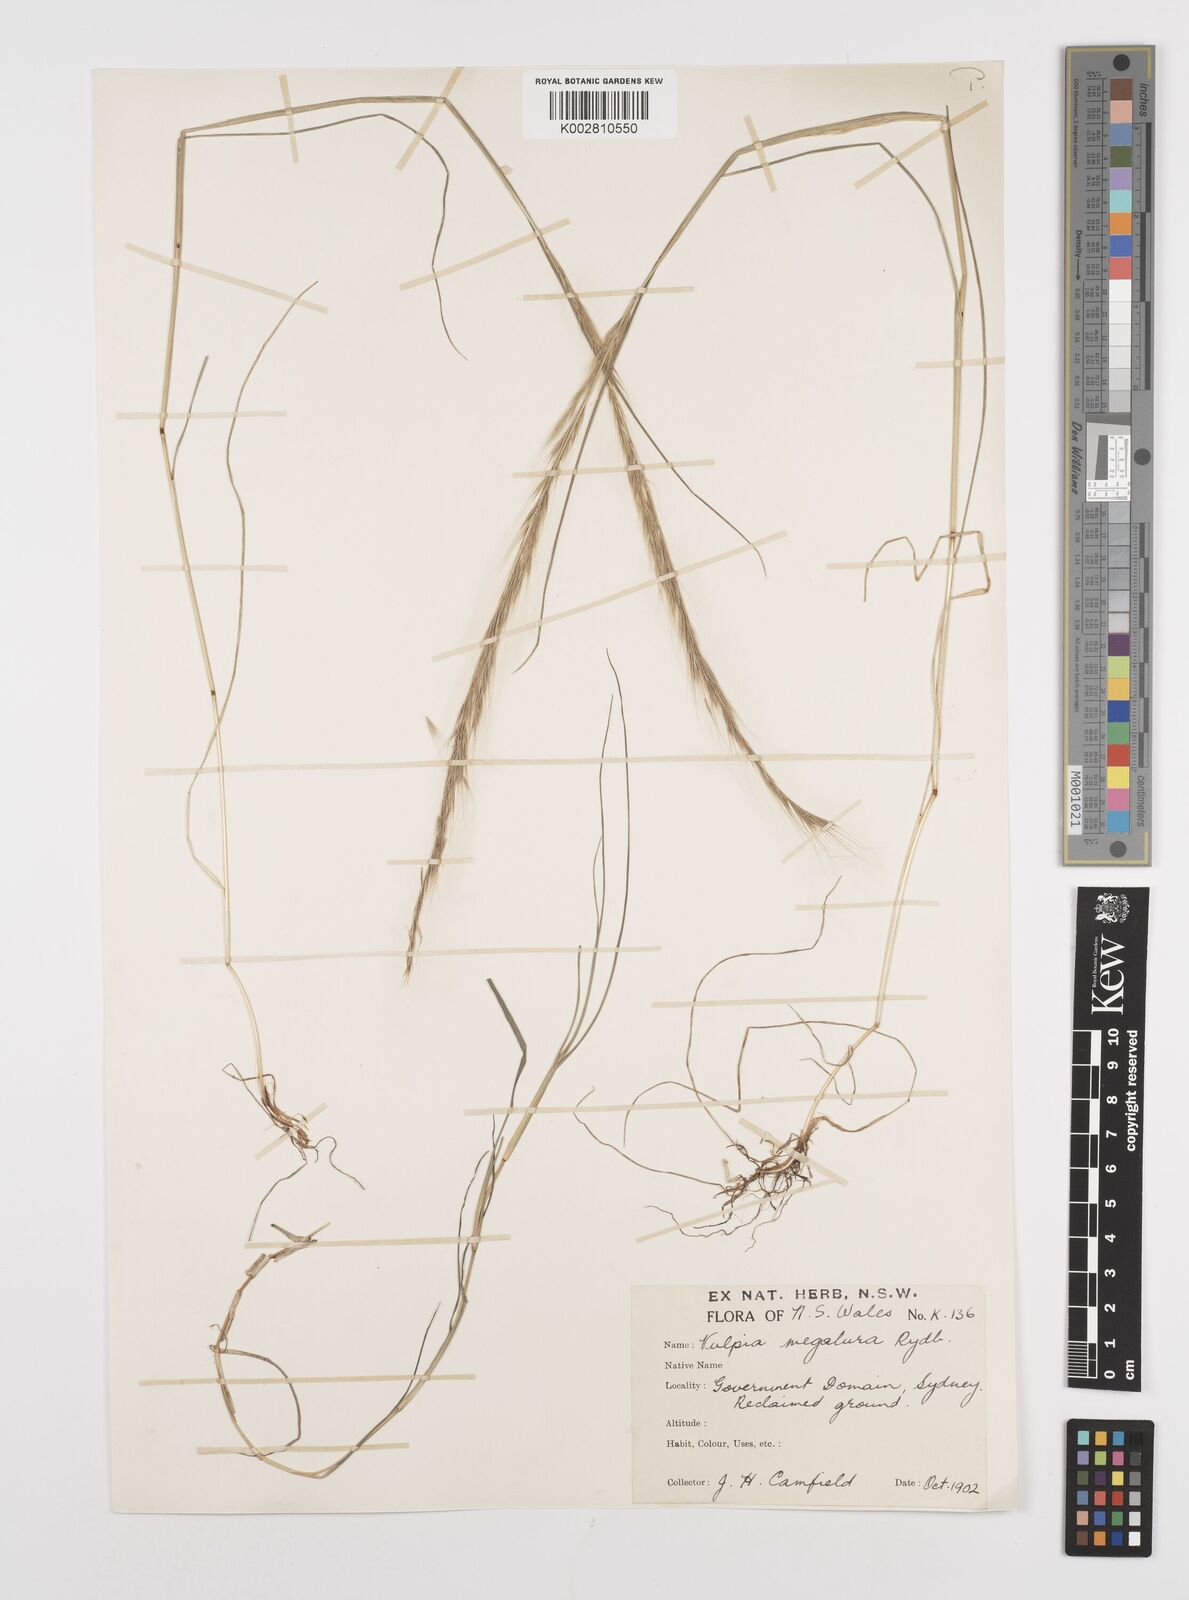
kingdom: Plantae
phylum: Tracheophyta
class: Liliopsida
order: Poales
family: Poaceae
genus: Festuca
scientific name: Festuca myuros
